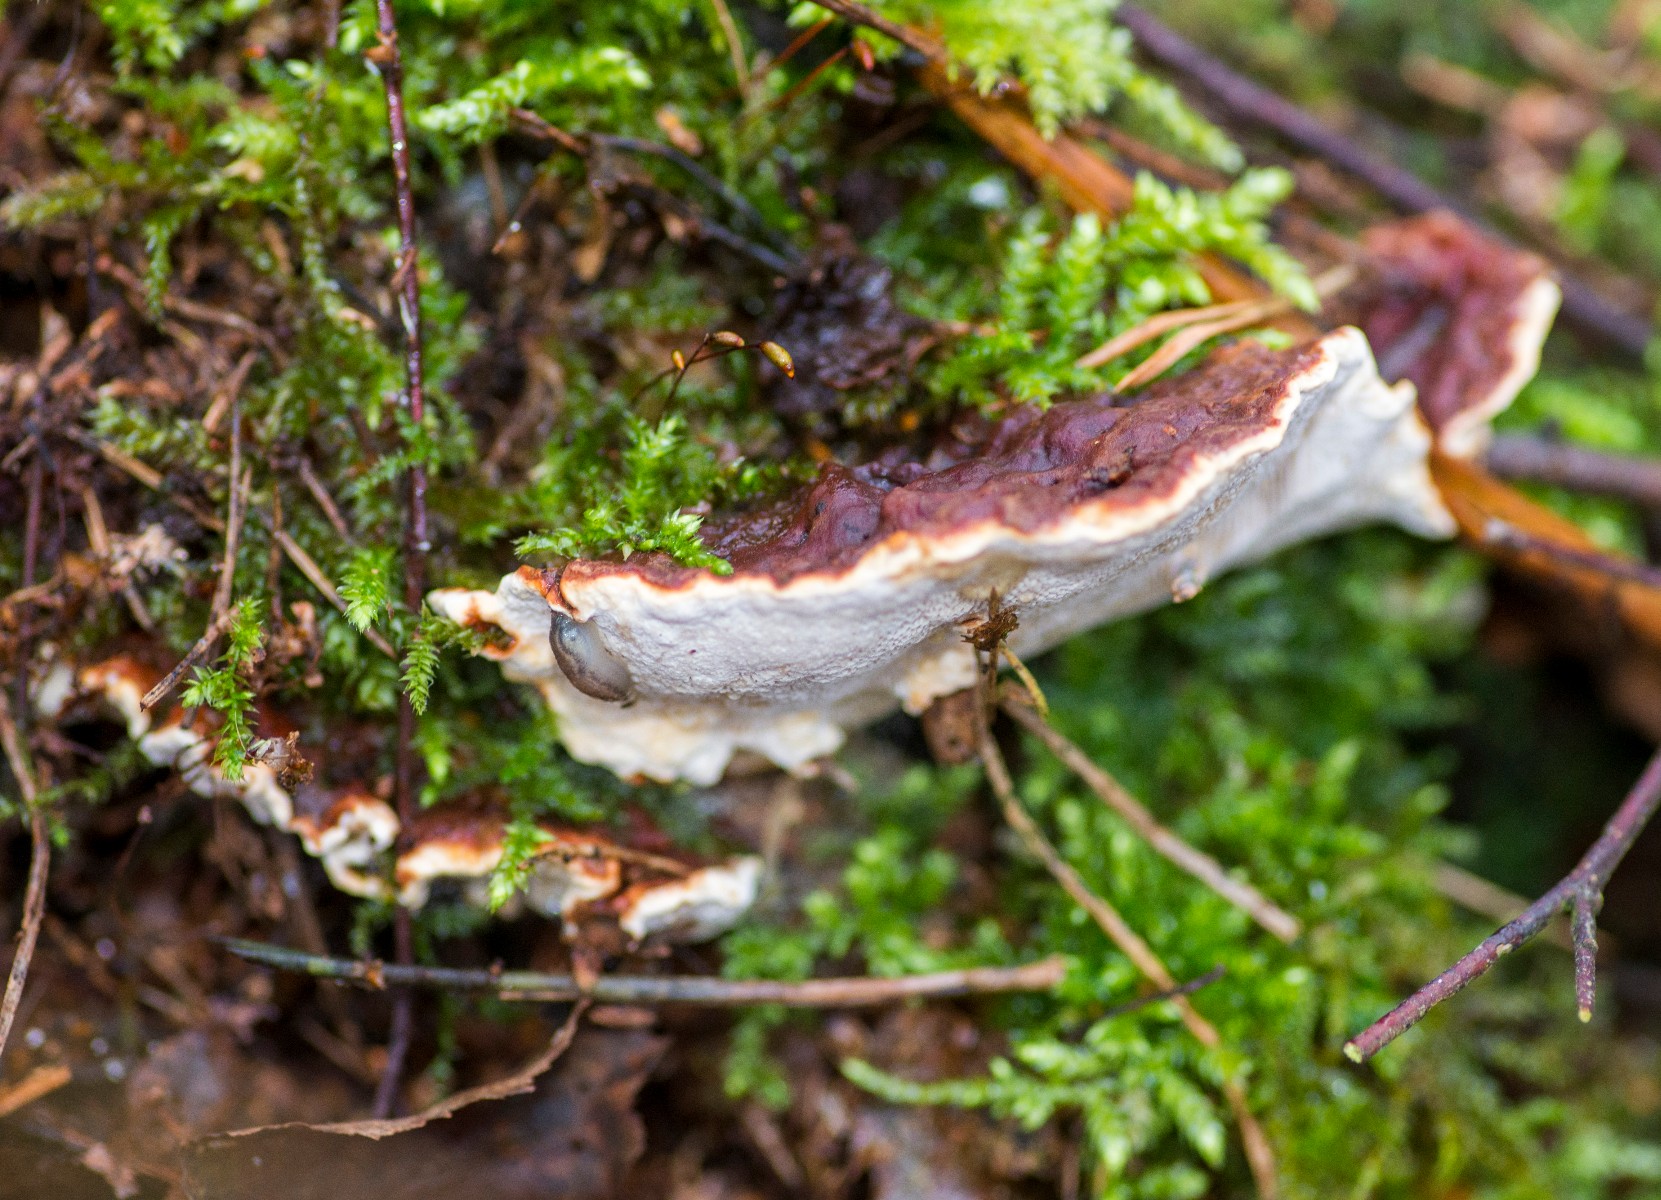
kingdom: Fungi
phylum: Basidiomycota
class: Agaricomycetes
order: Russulales
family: Bondarzewiaceae
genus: Heterobasidion
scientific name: Heterobasidion annosum
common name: almindelig rodfordærver
